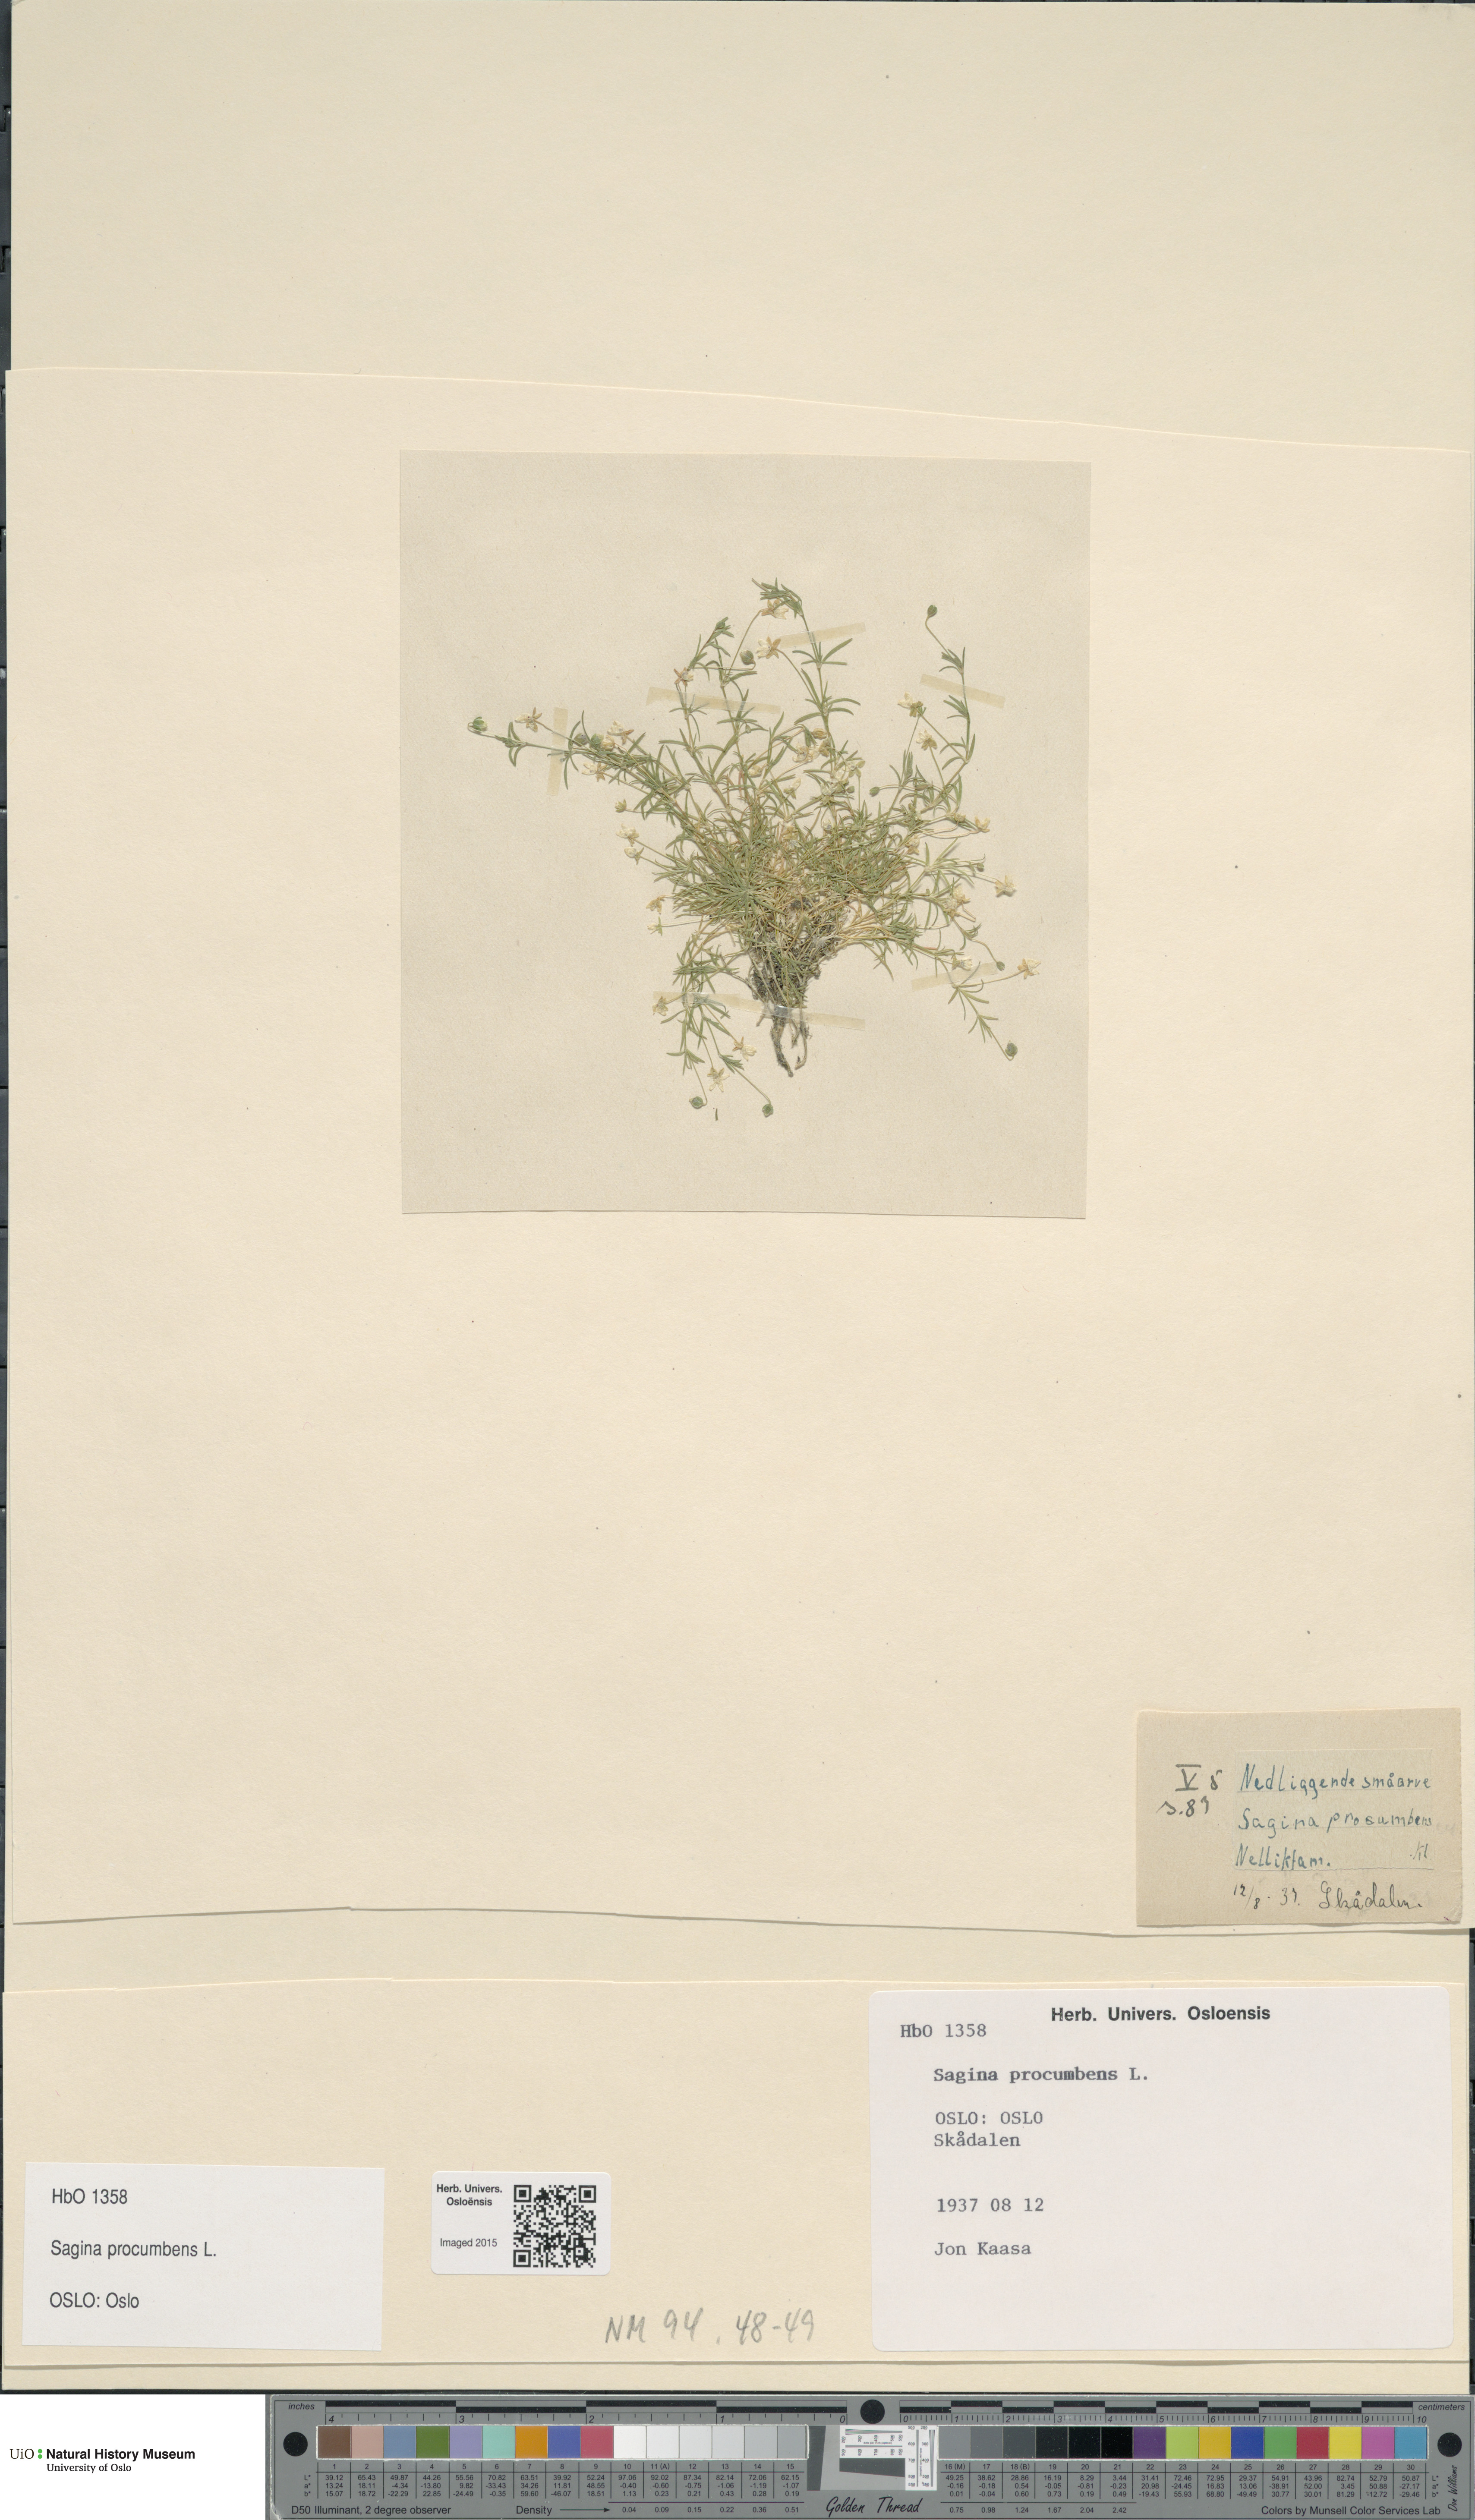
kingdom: Plantae
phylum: Tracheophyta
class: Magnoliopsida
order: Caryophyllales
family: Caryophyllaceae
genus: Sagina
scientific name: Sagina procumbens
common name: Procumbent pearlwort
